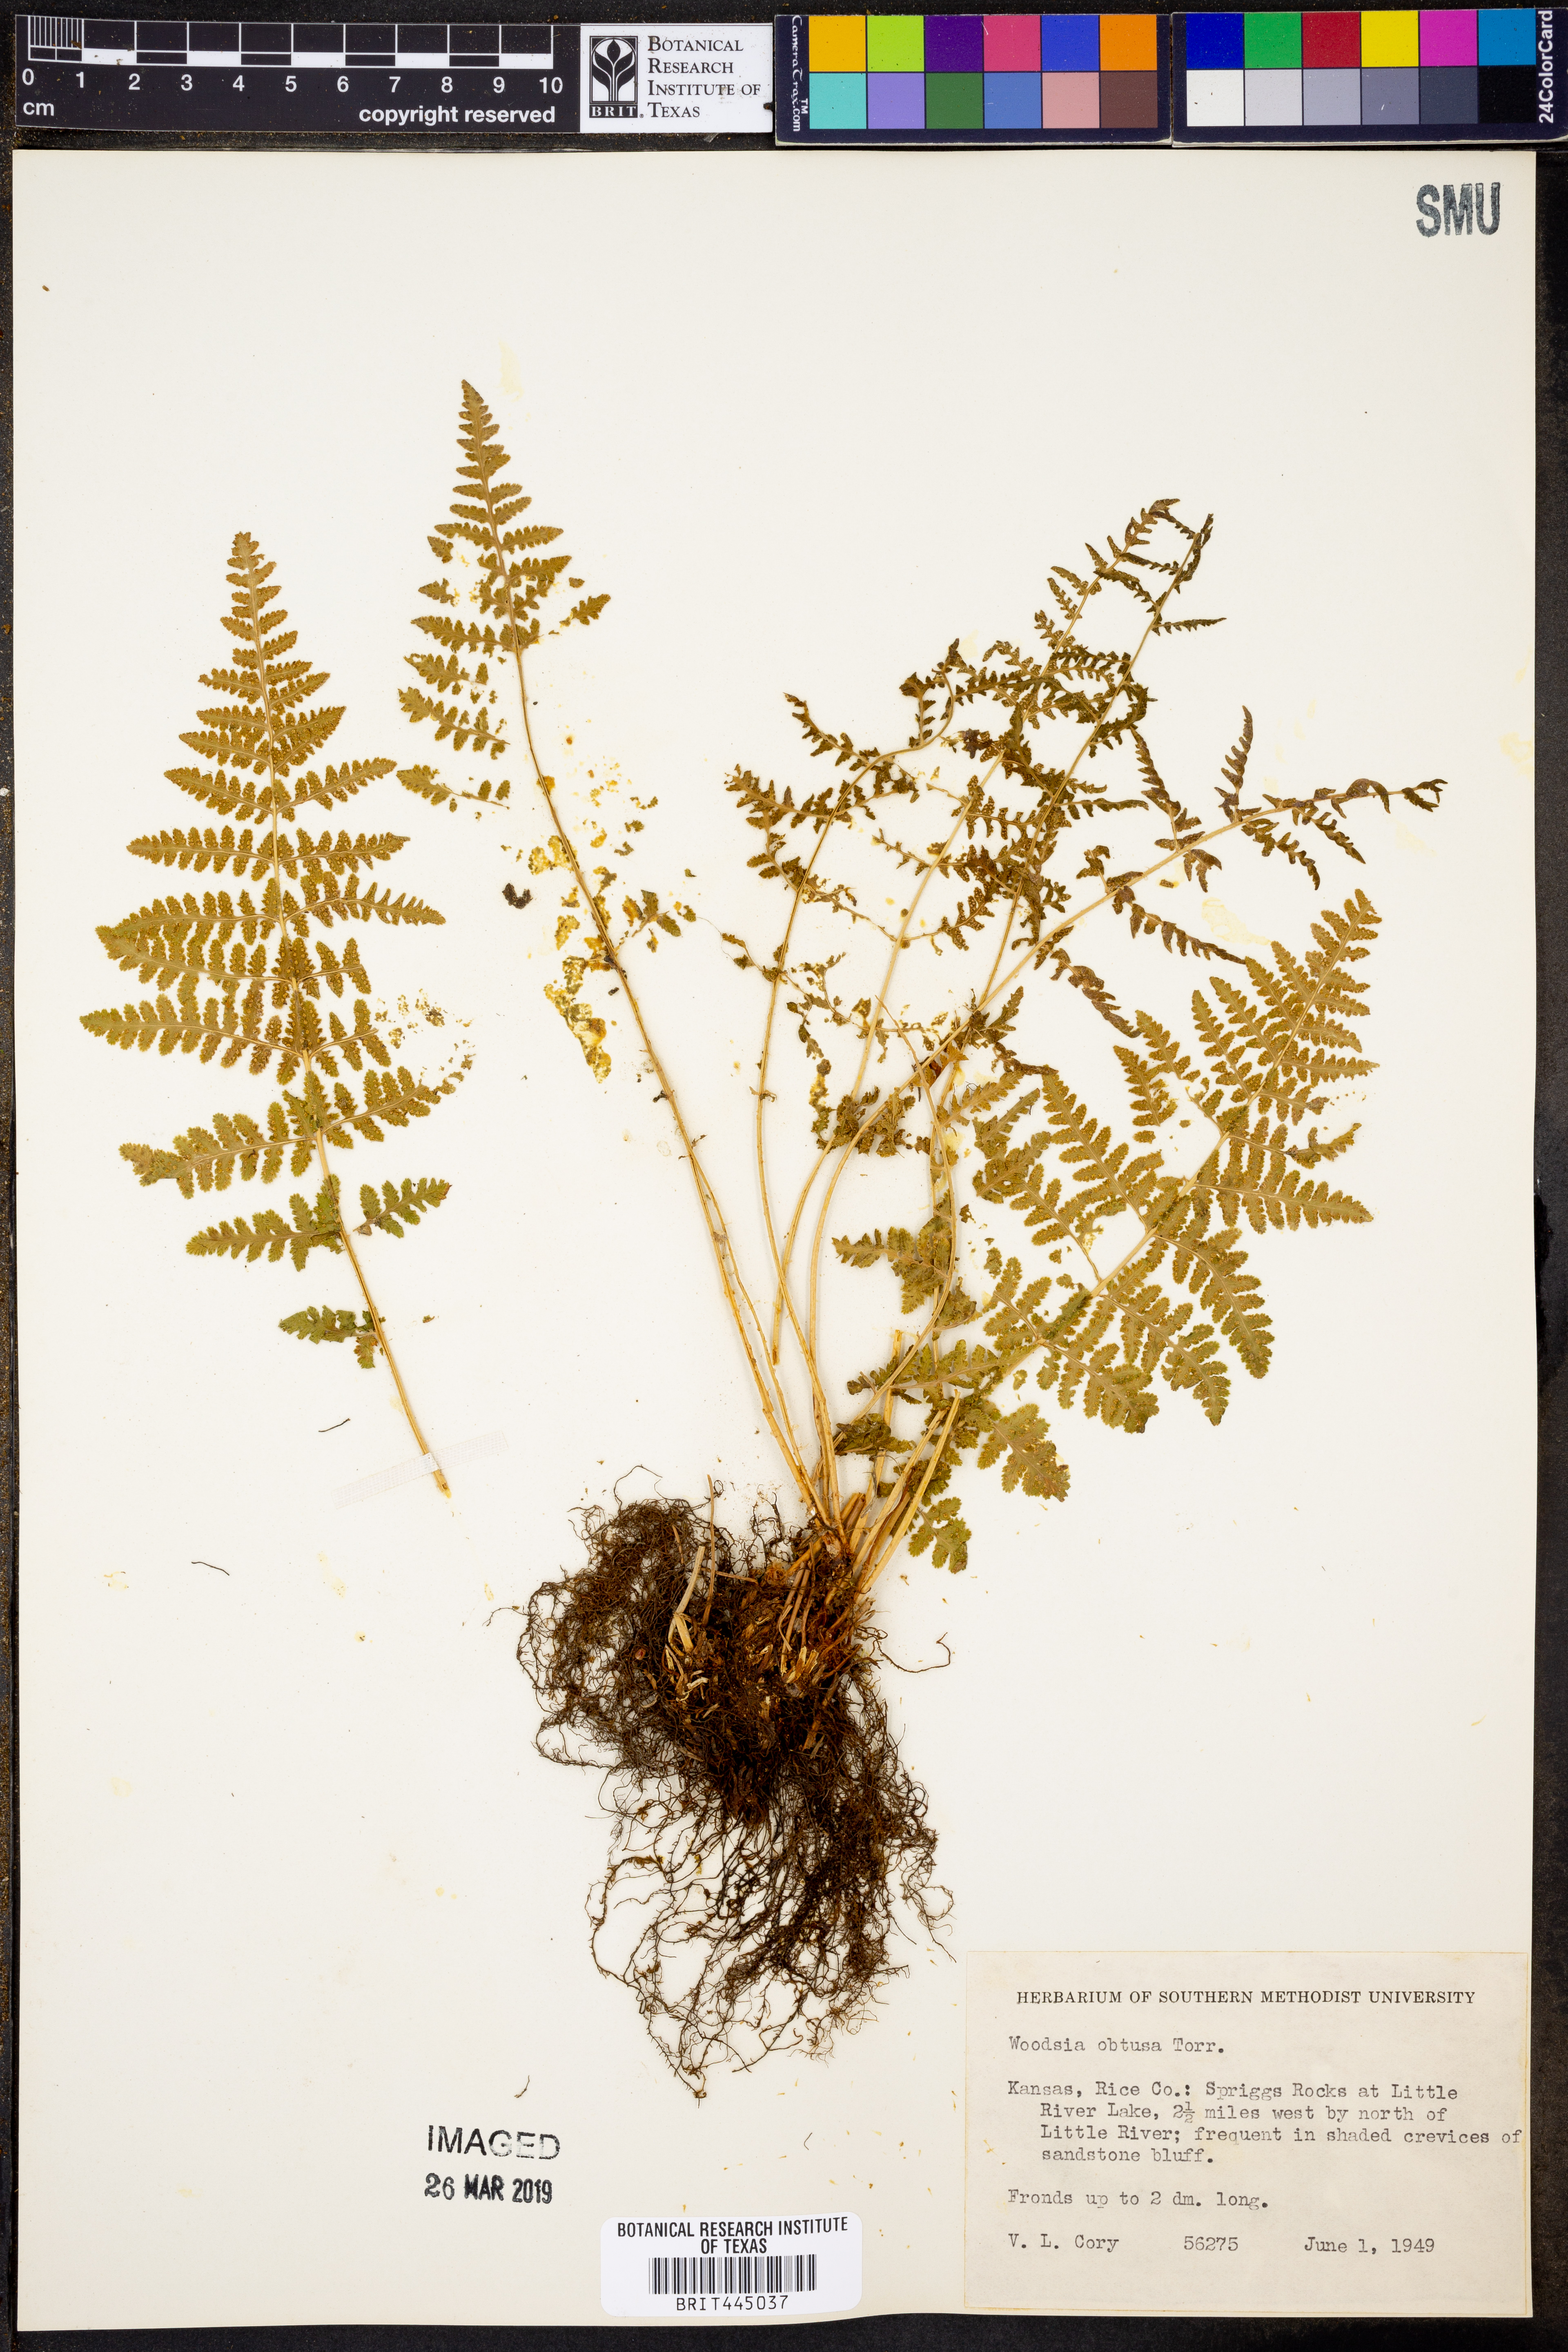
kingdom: Plantae
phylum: Tracheophyta
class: Polypodiopsida
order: Polypodiales
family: Woodsiaceae
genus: Physematium
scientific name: Physematium obtusum
